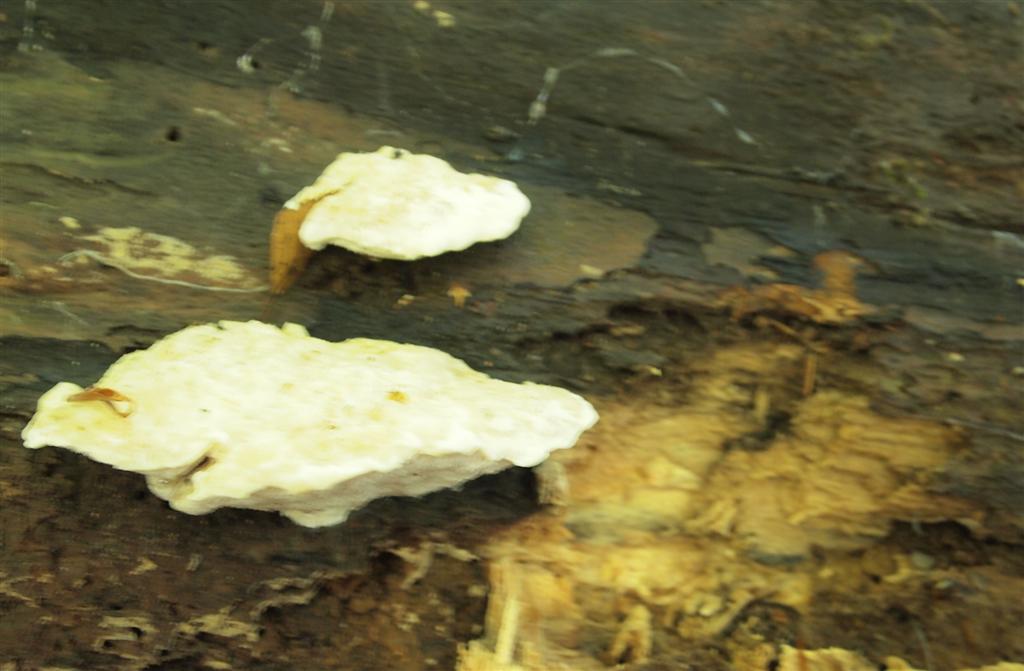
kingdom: Fungi
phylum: Basidiomycota
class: Agaricomycetes
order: Polyporales
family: Incrustoporiaceae
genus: Tyromyces
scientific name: Tyromyces lacteus
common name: mælkehvid kødporesvamp
